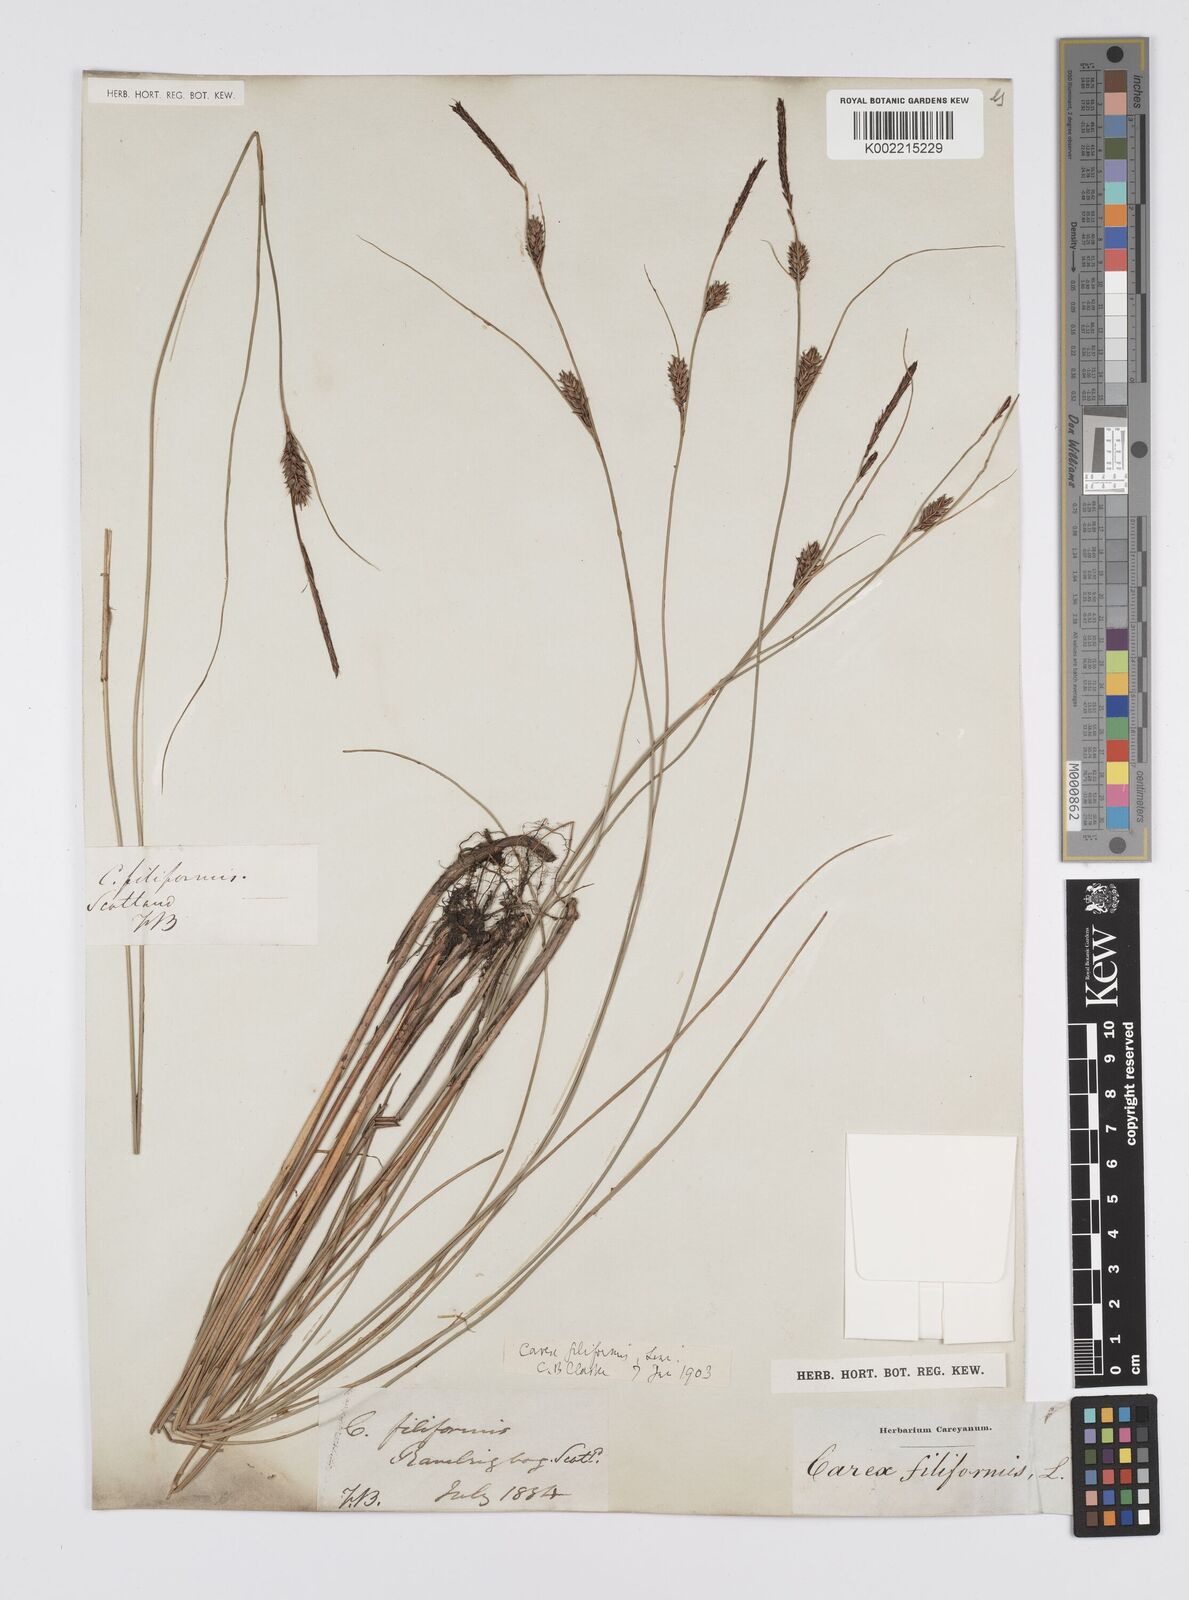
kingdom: Plantae
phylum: Tracheophyta
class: Liliopsida
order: Poales
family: Cyperaceae
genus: Carex
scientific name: Carex lasiocarpa
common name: Slender sedge
